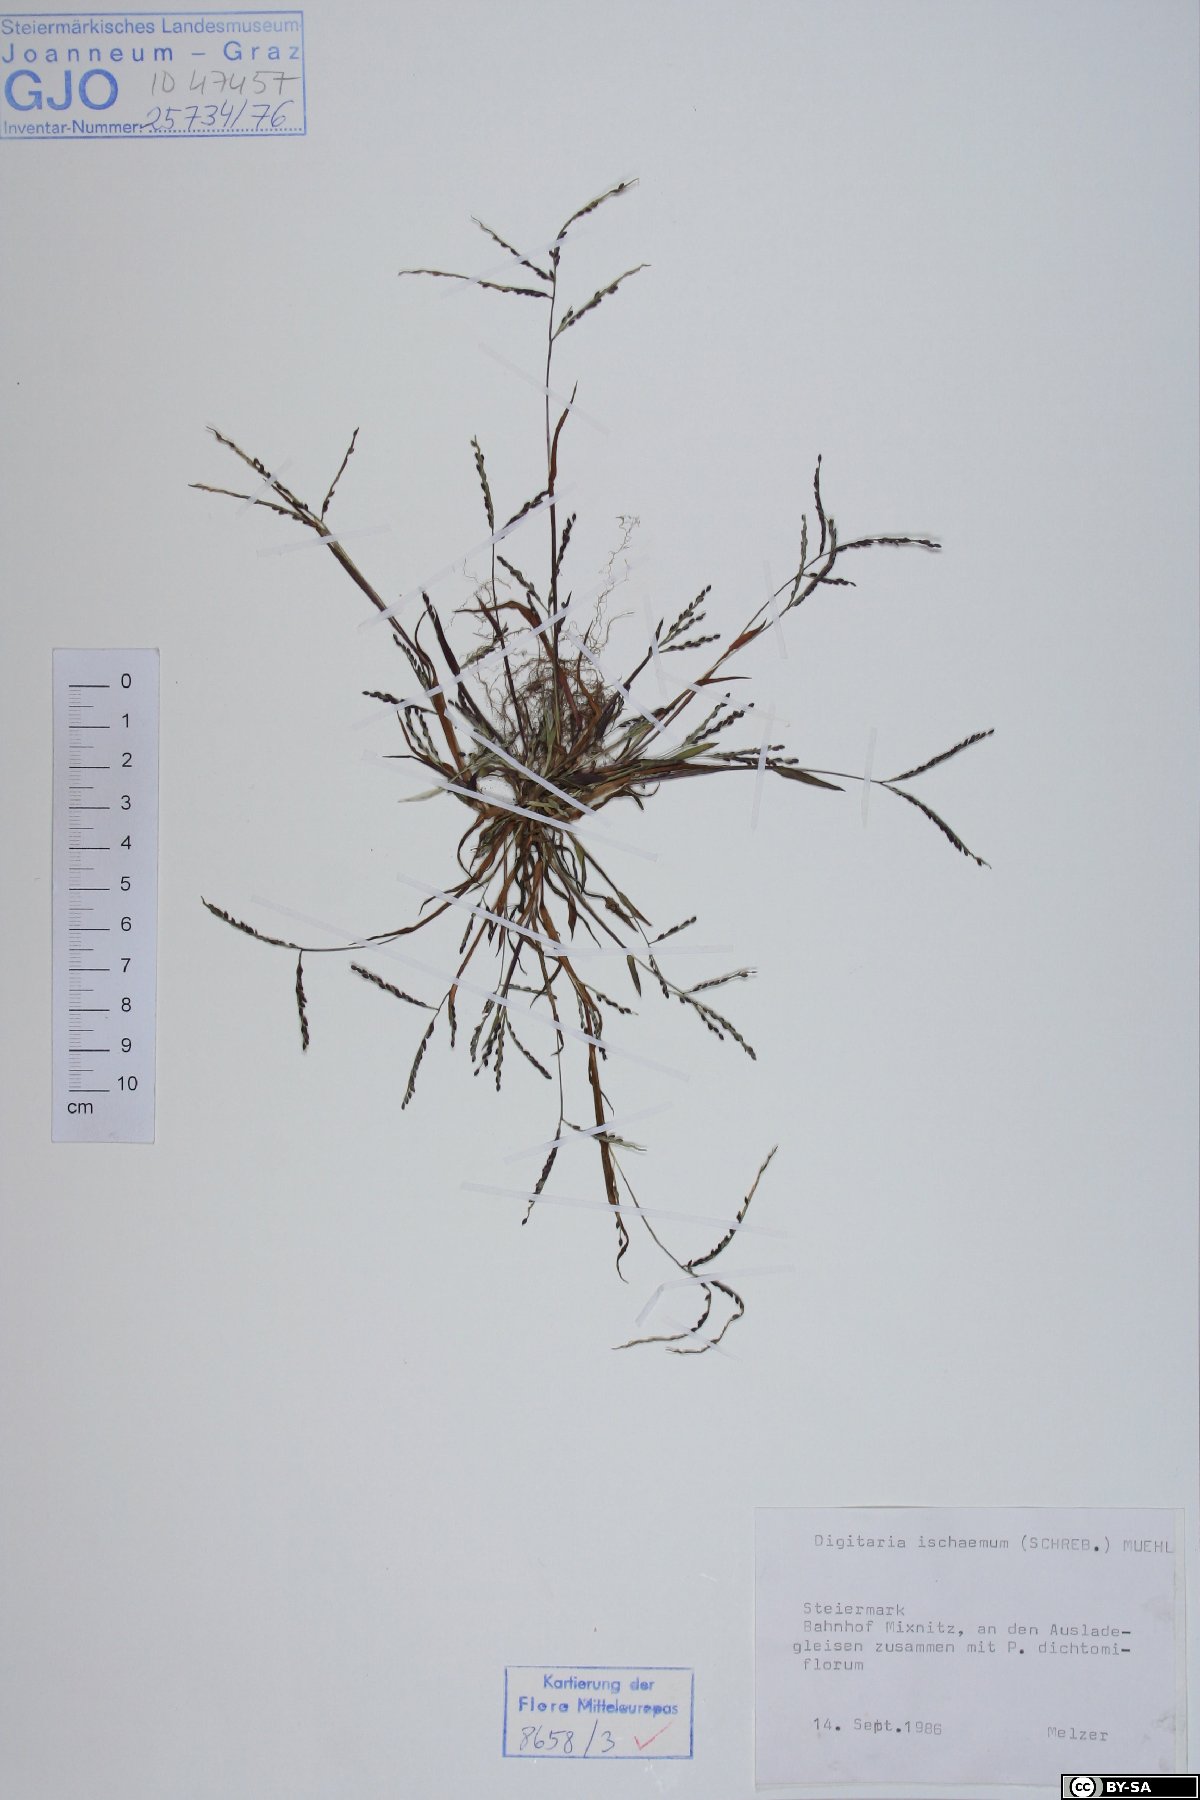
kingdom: Plantae
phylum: Tracheophyta
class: Liliopsida
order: Poales
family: Poaceae
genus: Digitaria
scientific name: Digitaria ischaemum
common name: Smooth crabgrass
